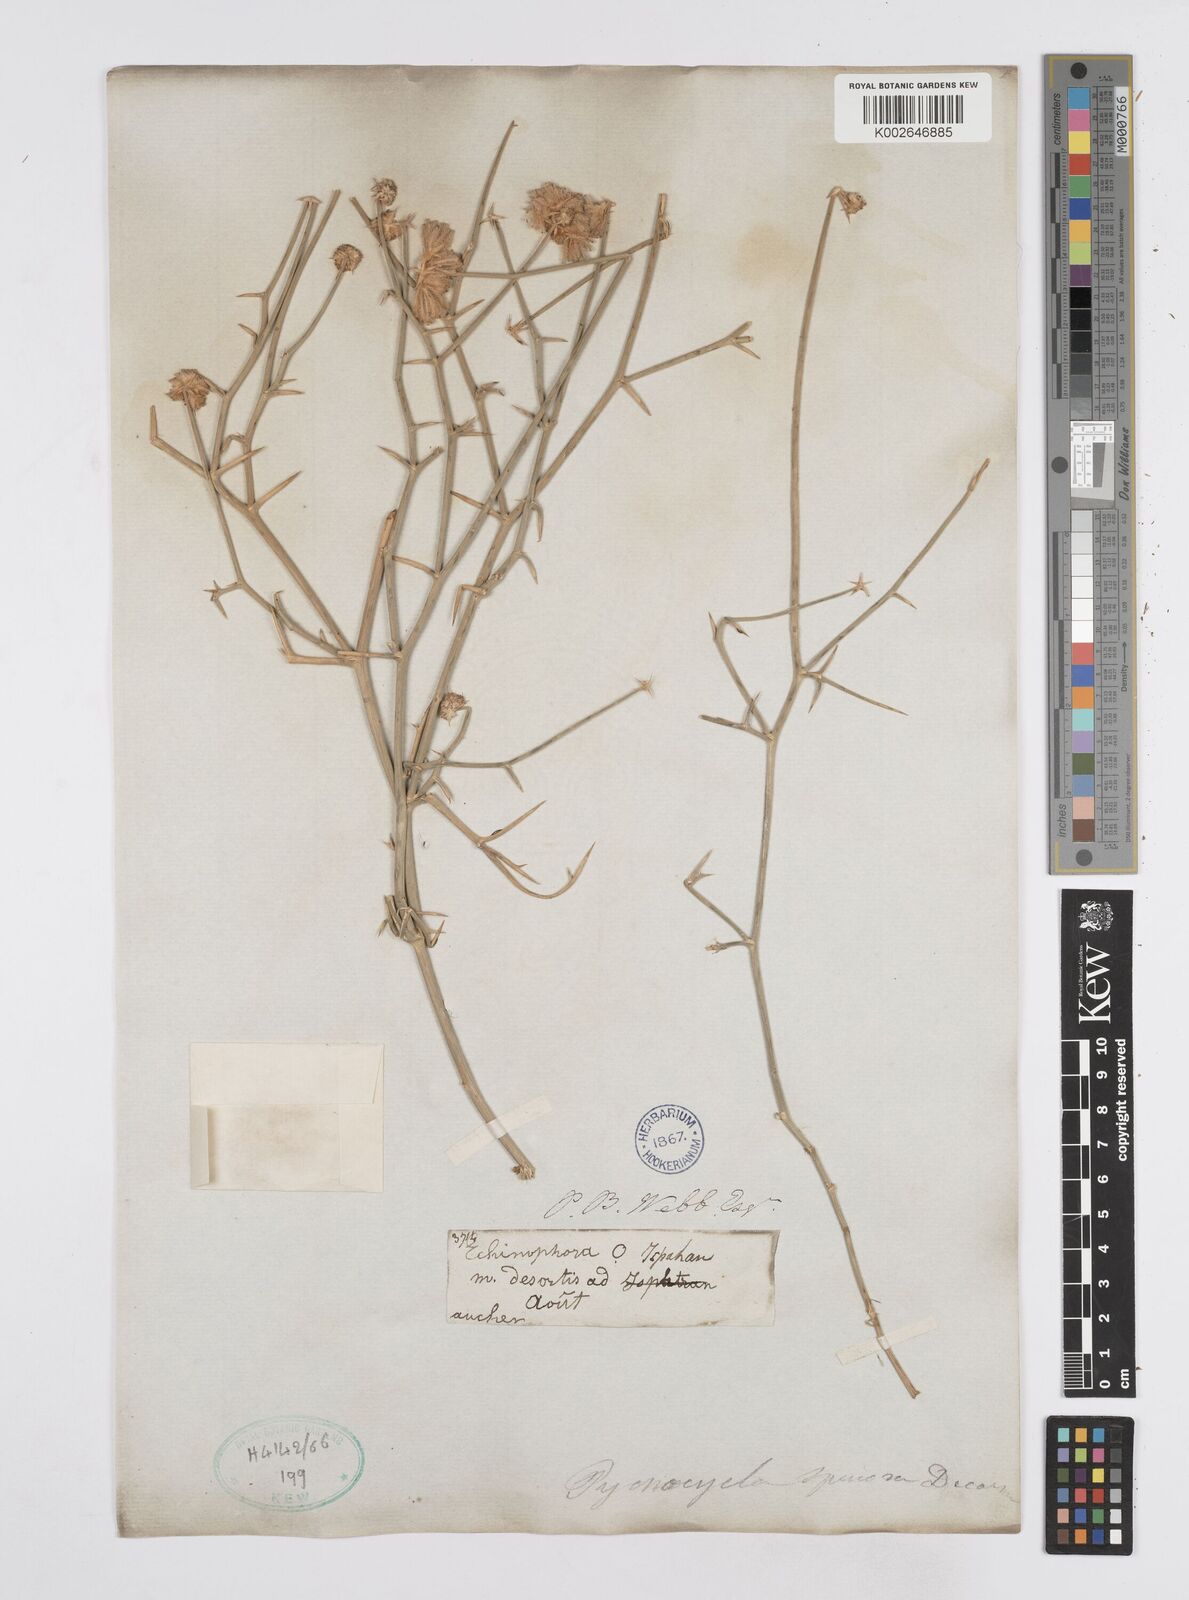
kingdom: Plantae
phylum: Tracheophyta
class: Magnoliopsida
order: Apiales
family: Apiaceae
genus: Pycnocycla
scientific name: Pycnocycla spinosa
